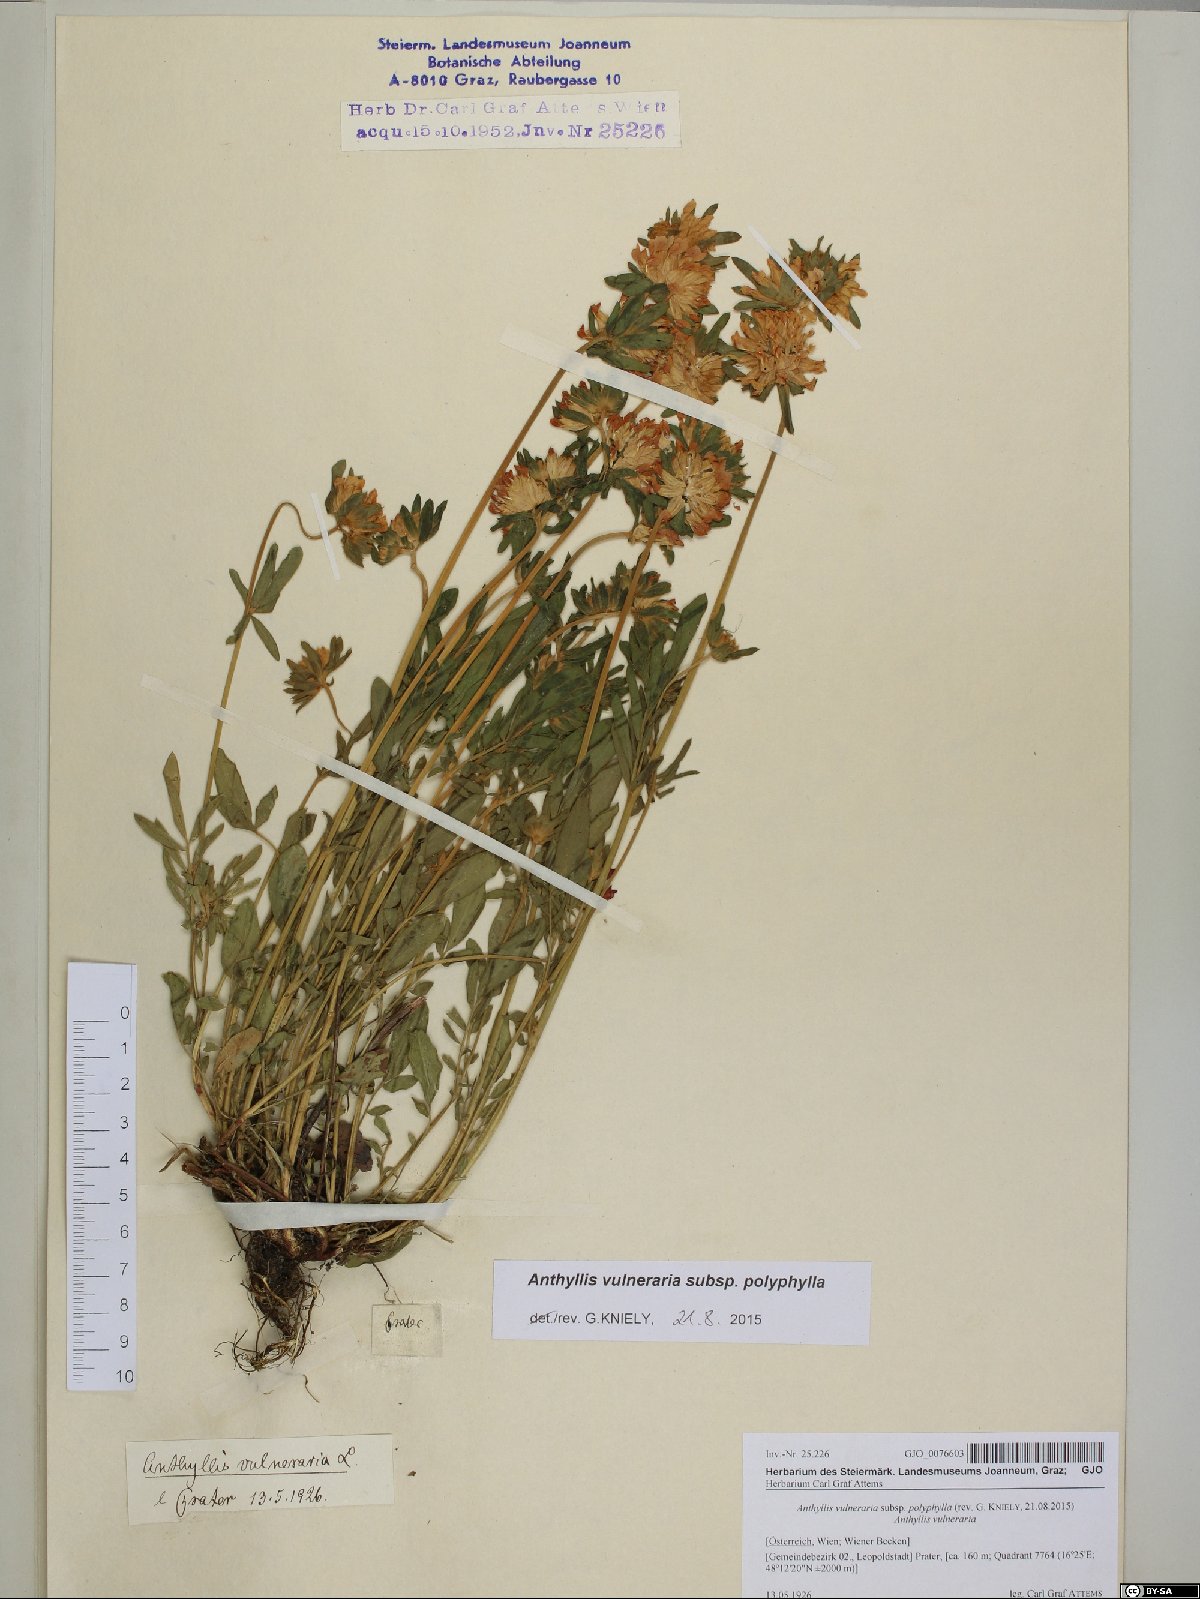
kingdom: Plantae
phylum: Tracheophyta
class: Magnoliopsida
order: Fabales
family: Fabaceae
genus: Anthyllis
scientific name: Anthyllis vulneraria
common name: Kidney vetch
